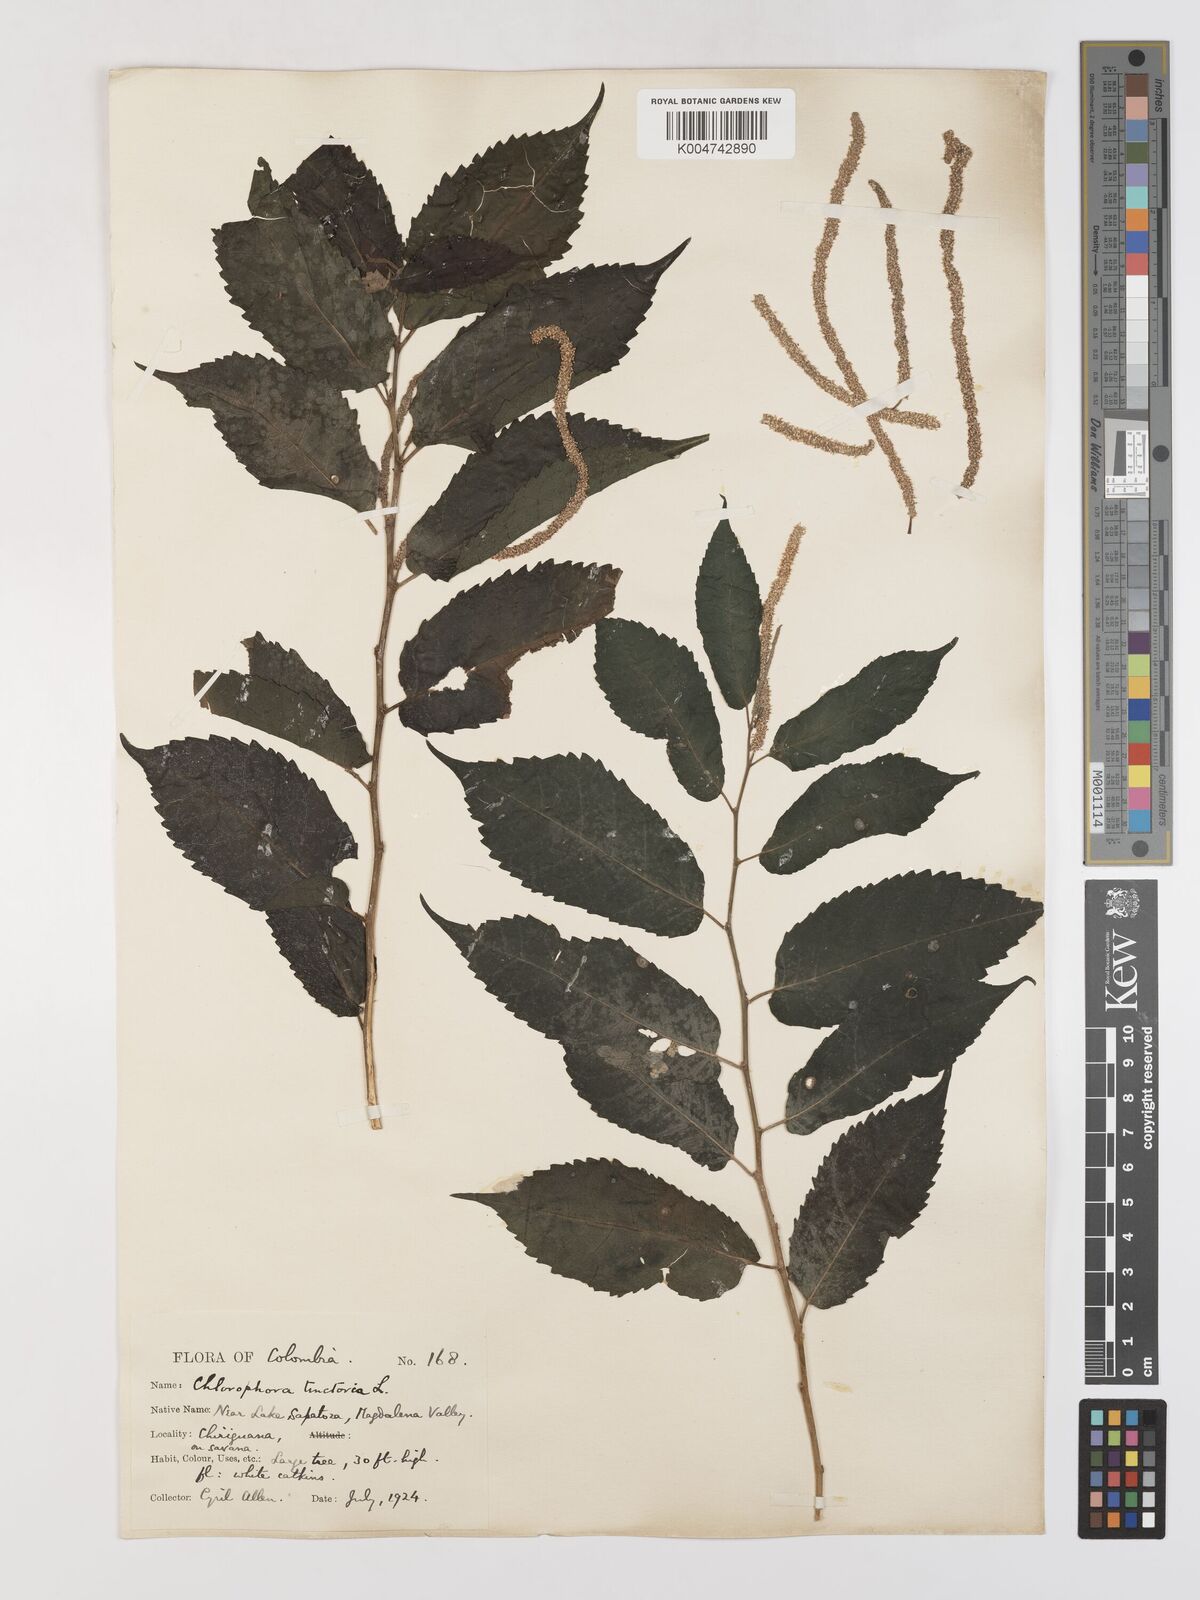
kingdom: Plantae
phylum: Tracheophyta
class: Magnoliopsida
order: Rosales
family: Moraceae
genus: Maclura
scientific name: Maclura tinctoria
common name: Old fustic
